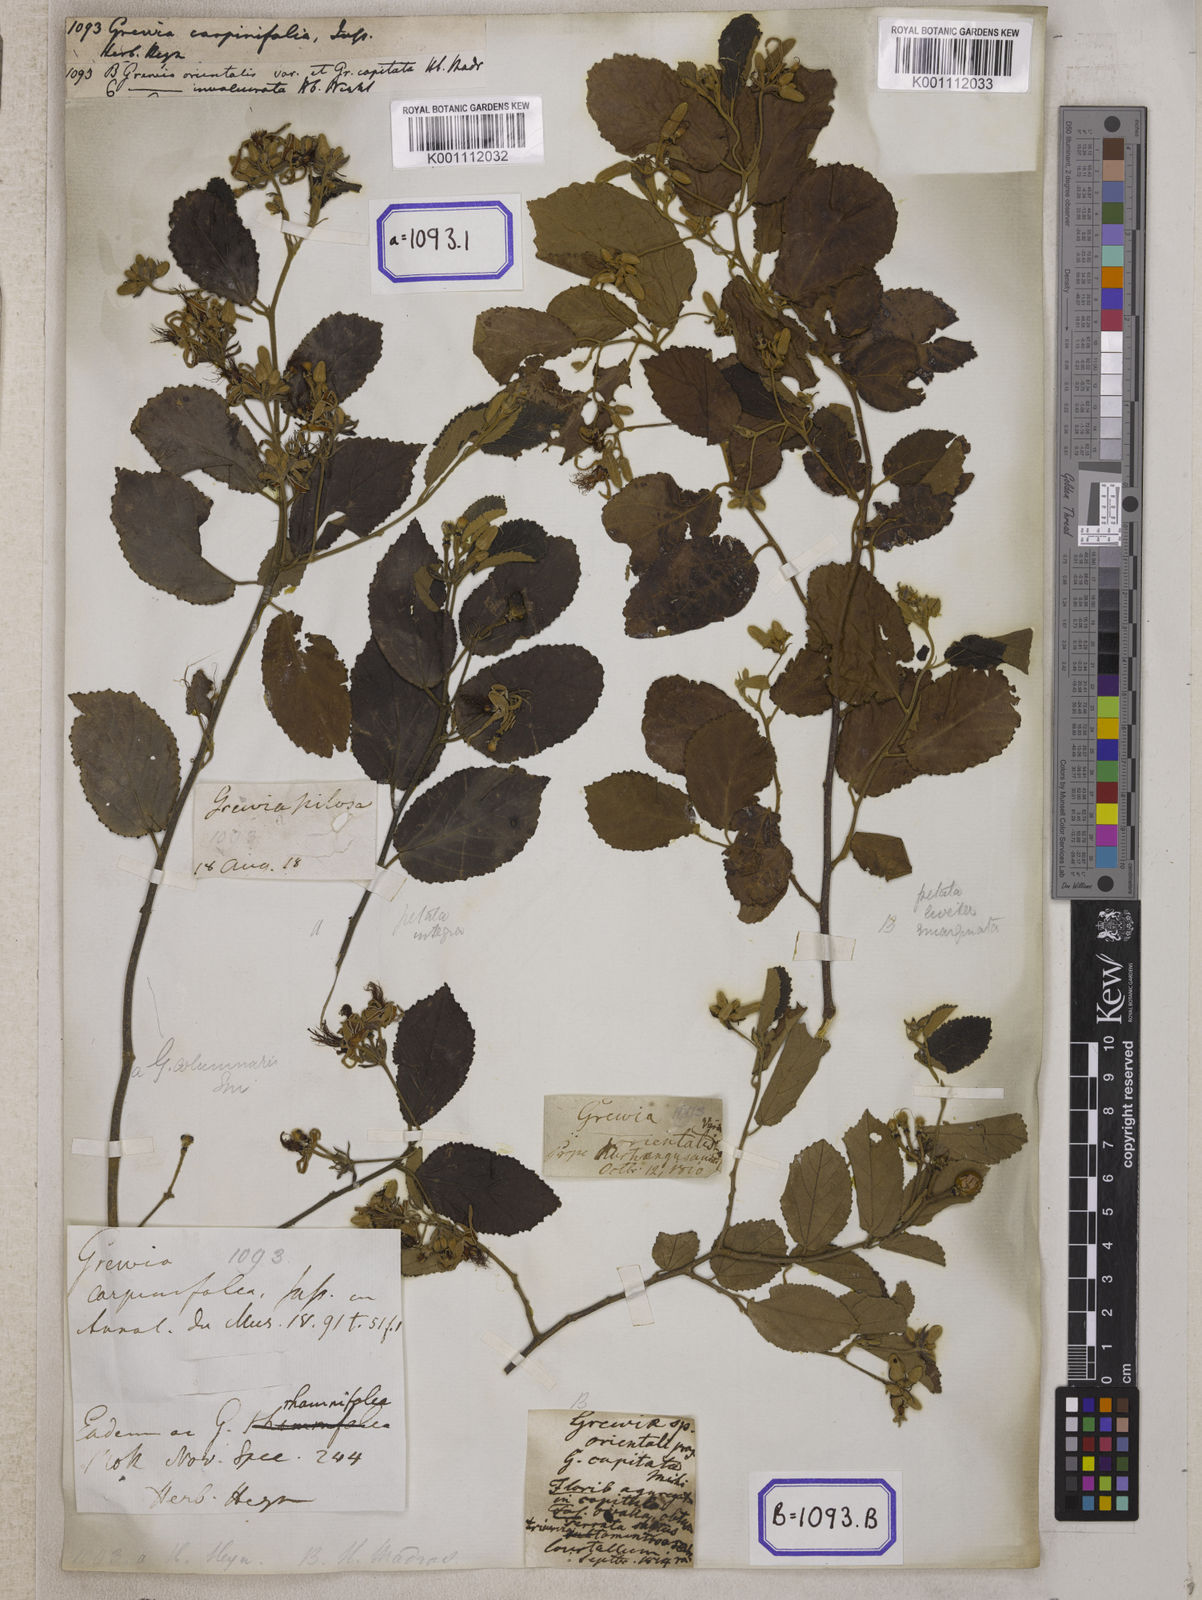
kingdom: Plantae
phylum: Tracheophyta
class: Magnoliopsida
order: Malvales
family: Malvaceae
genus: Grewia
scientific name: Grewia carpinifolia
